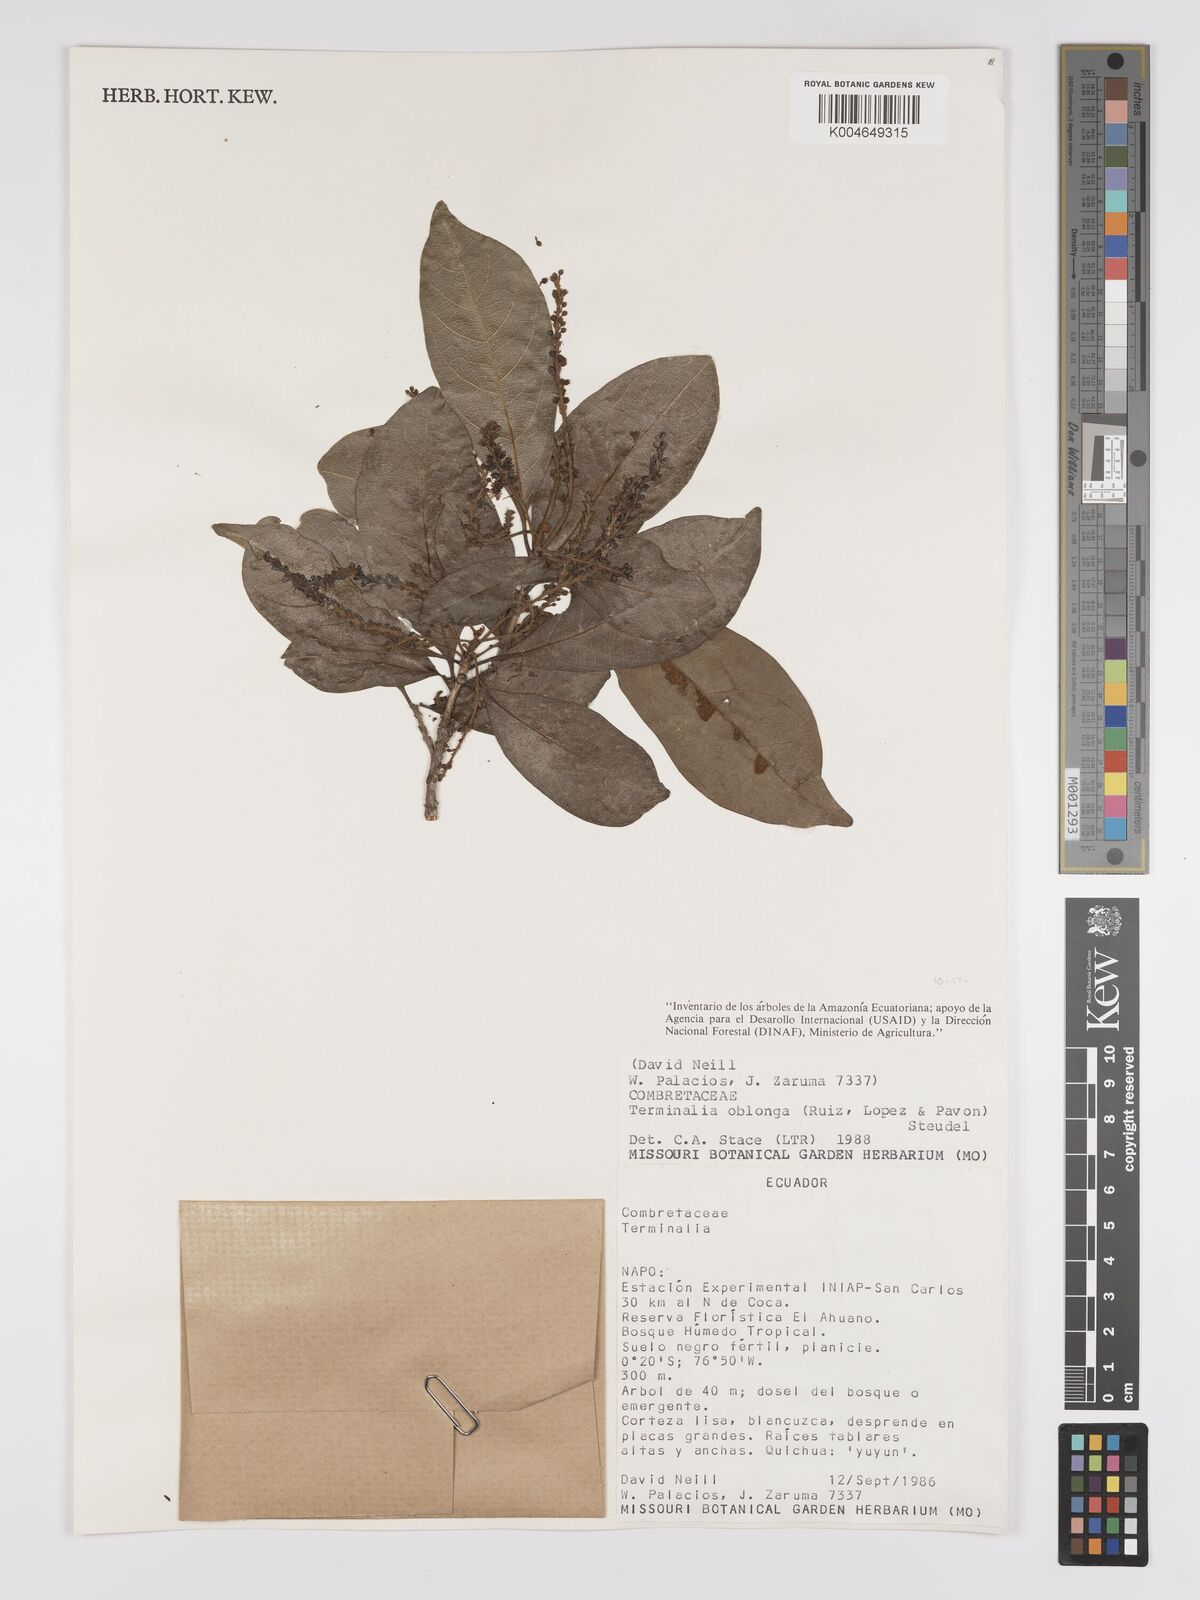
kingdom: Plantae
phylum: Tracheophyta
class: Magnoliopsida
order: Myrtales
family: Combretaceae
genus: Terminalia
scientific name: Terminalia oblonga
